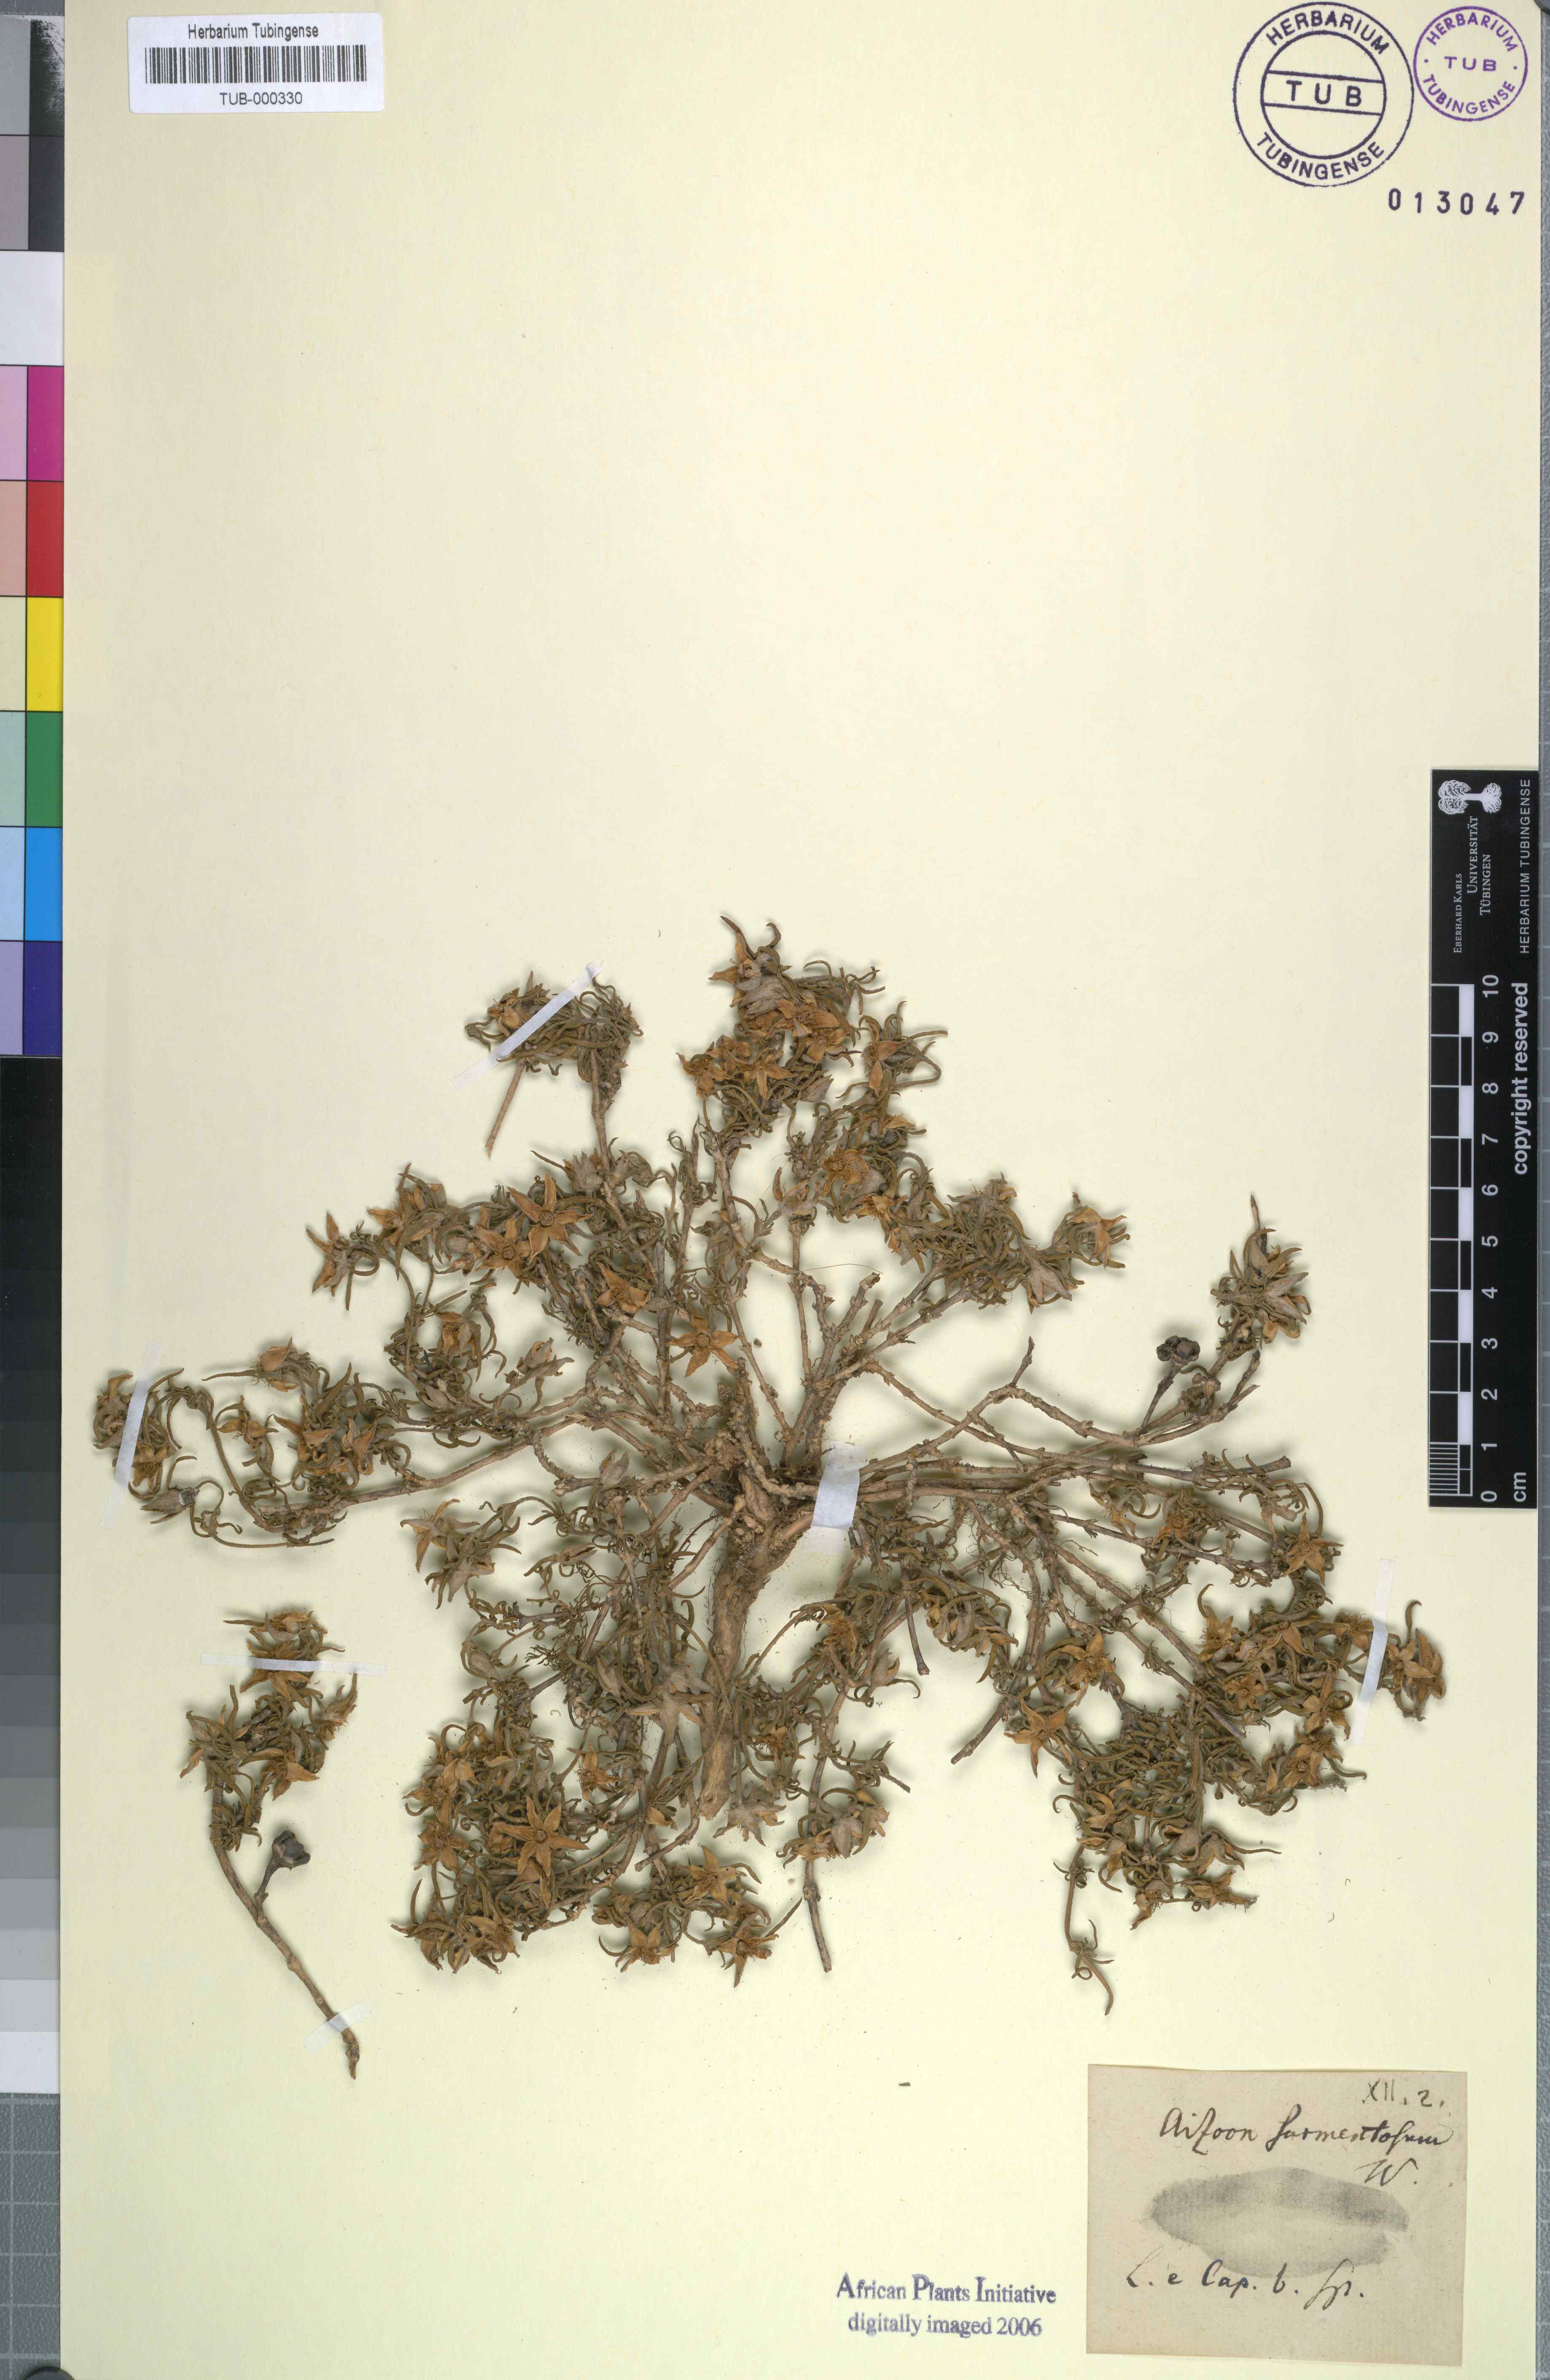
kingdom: Plantae
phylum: Tracheophyta
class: Magnoliopsida
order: Caryophyllales
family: Aizoaceae
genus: Aizoon
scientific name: Aizoon sarmentosum
